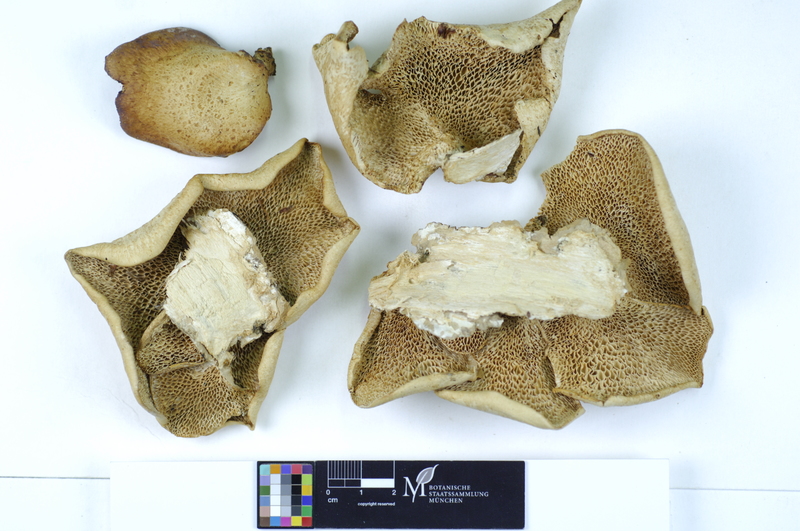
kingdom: Fungi
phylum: Basidiomycota
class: Agaricomycetes
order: Polyporales
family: Polyporaceae
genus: Neofavolus
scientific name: Neofavolus alveolaris
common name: Hexagonal-pored polypore
